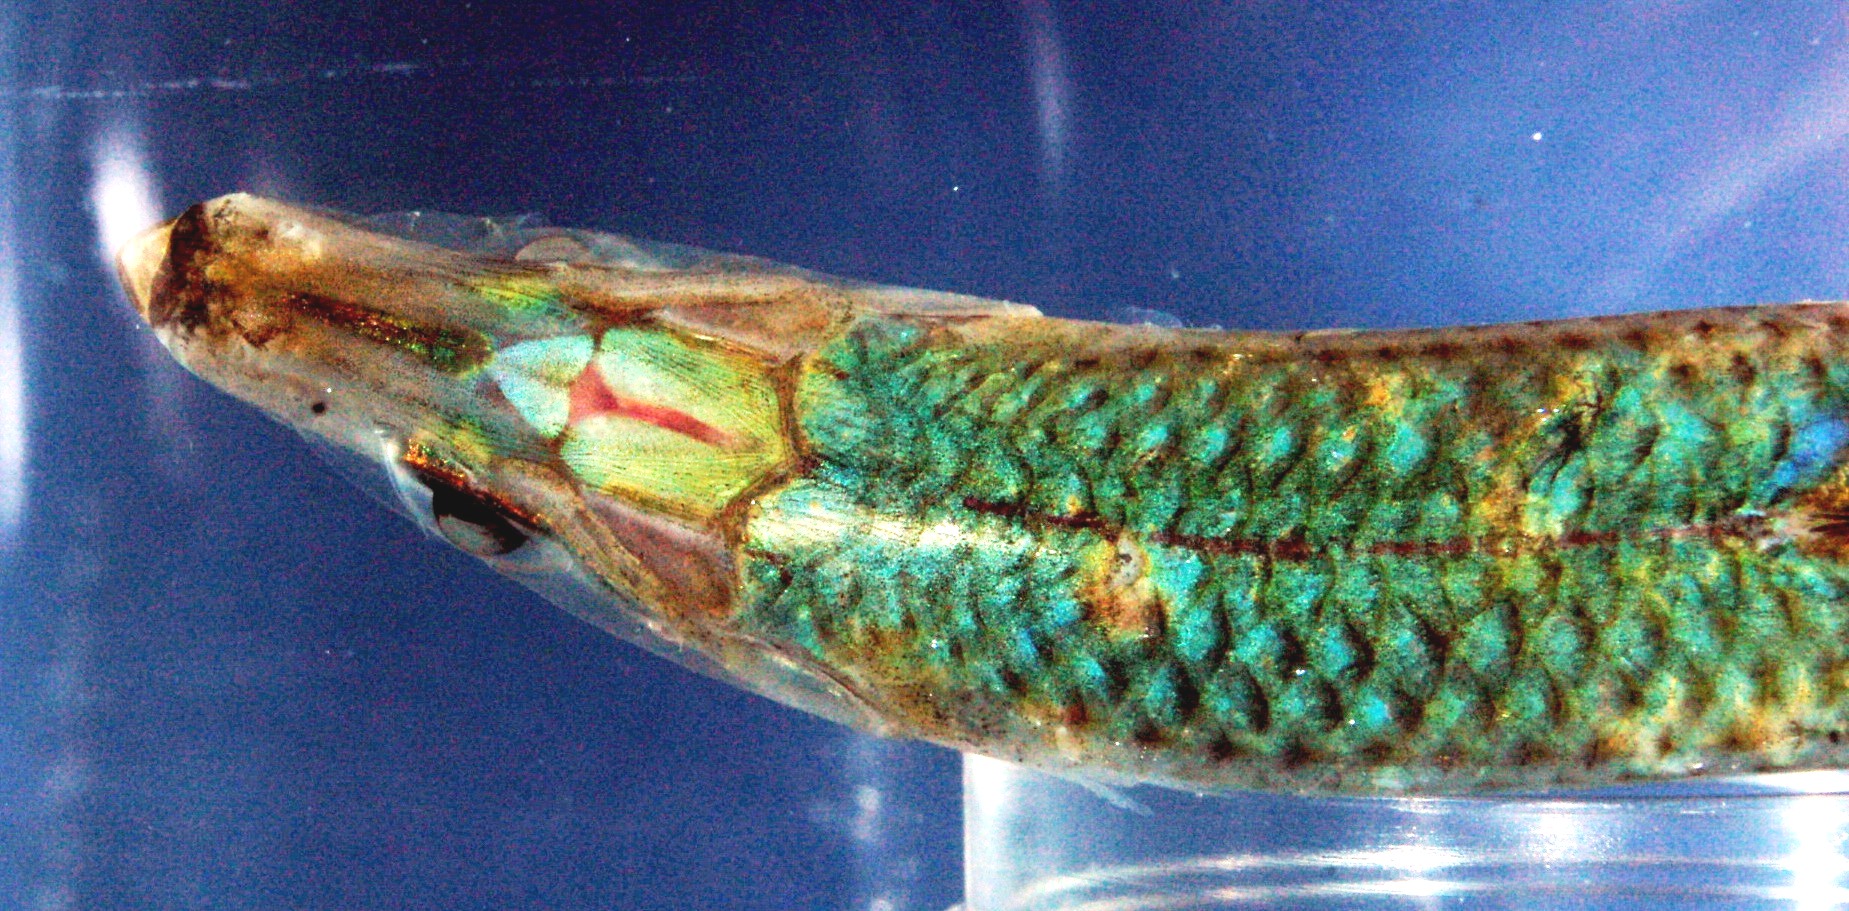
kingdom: Animalia
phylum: Chordata
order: Clupeiformes
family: Clupeidae
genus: Sardinella
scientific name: Sardinella gibbosa
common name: Goldstripe sardinella
